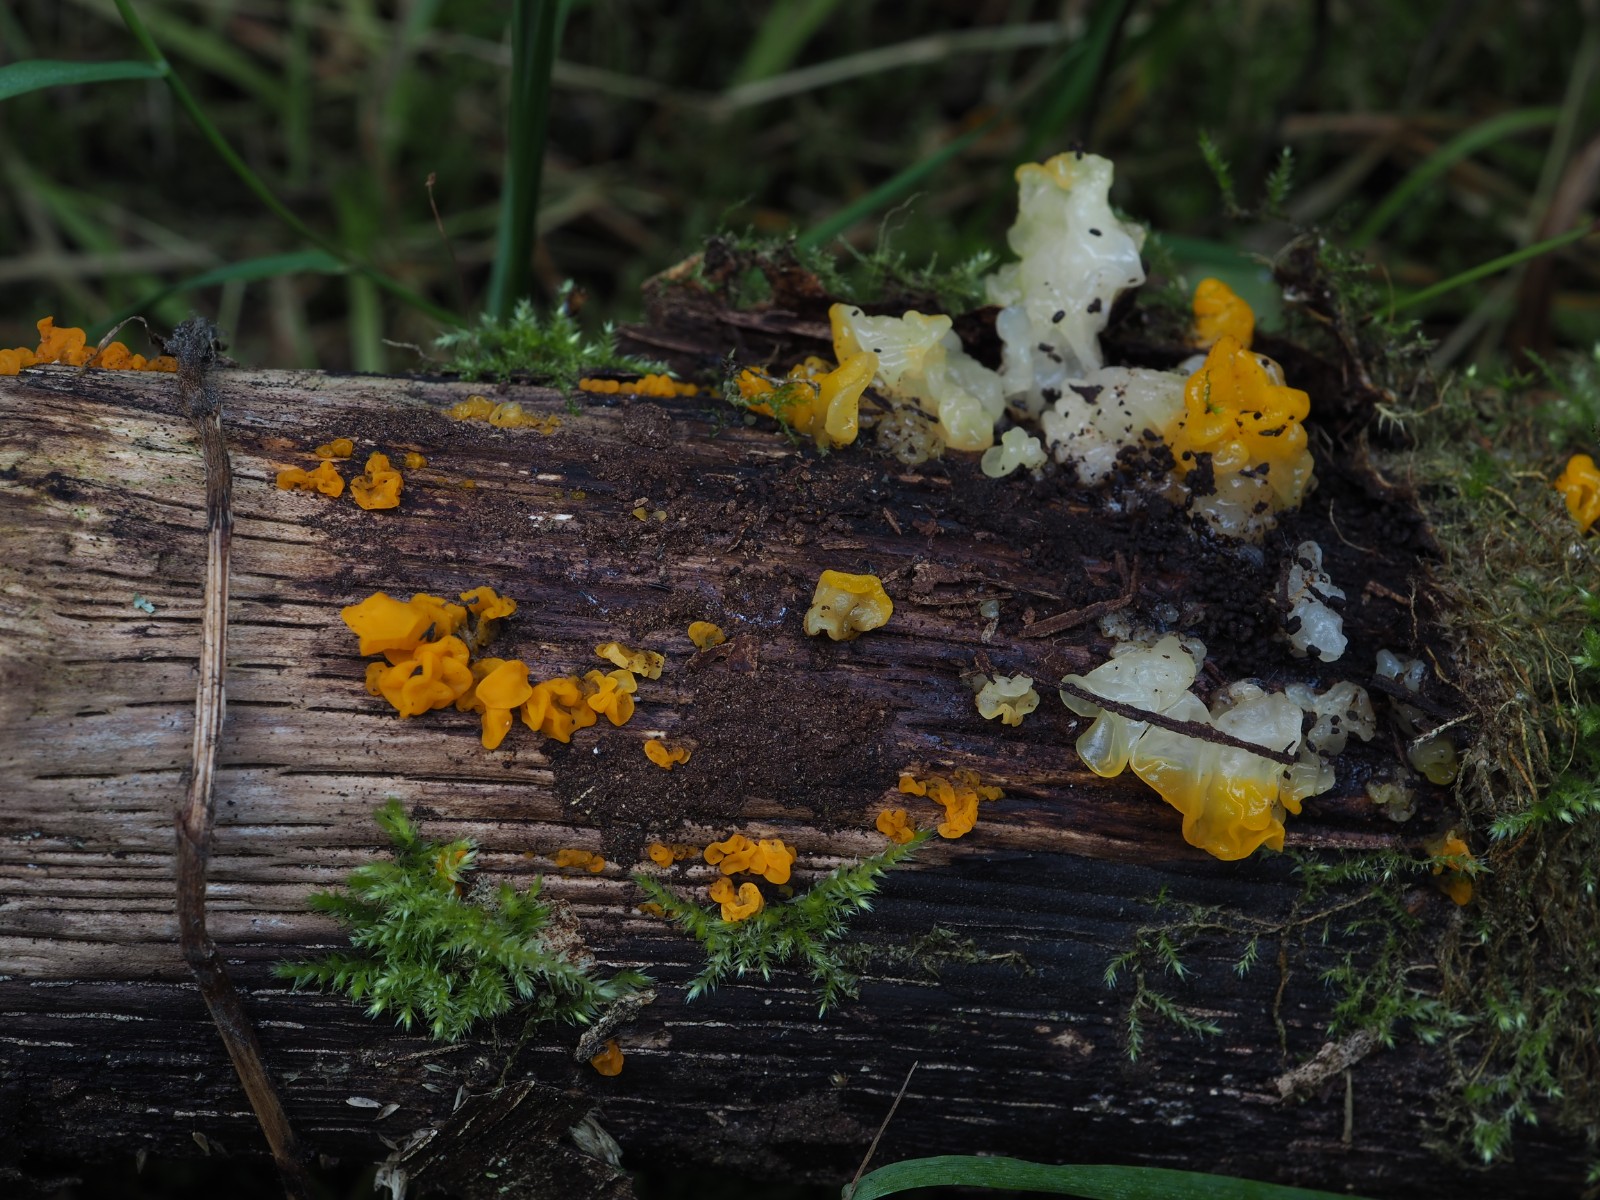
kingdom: Fungi
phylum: Basidiomycota
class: Tremellomycetes
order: Tremellales
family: Tremellaceae
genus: Tremella
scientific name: Tremella mesenterica
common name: gul bævresvamp
